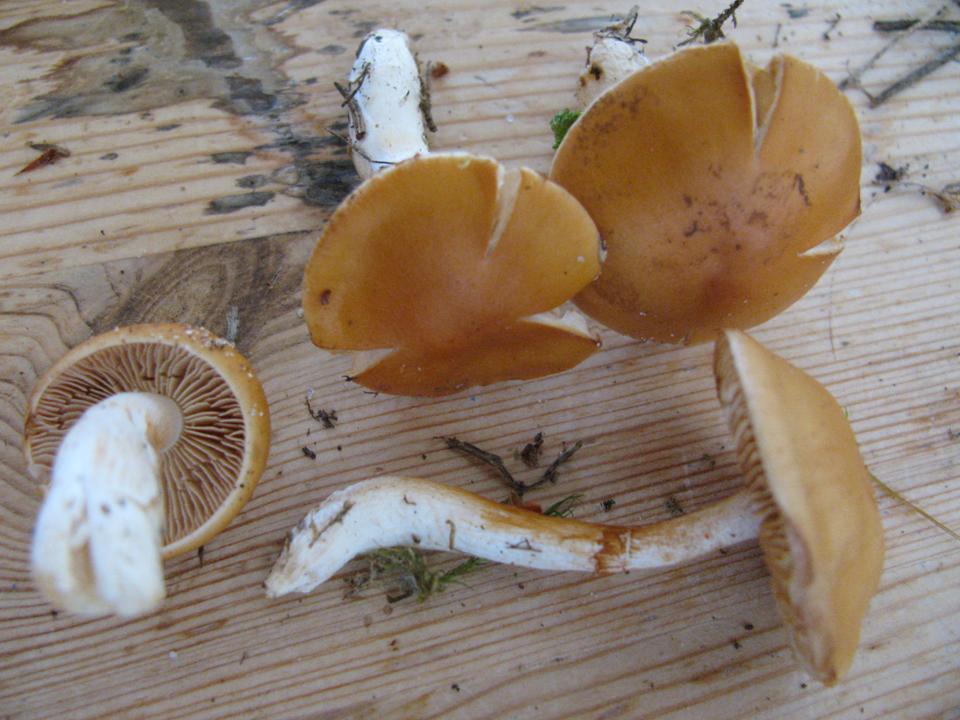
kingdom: Fungi
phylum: Basidiomycota
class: Agaricomycetes
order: Agaricales
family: Cortinariaceae
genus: Thaxterogaster
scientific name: Thaxterogaster pluvius
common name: hvidgul slørhat
